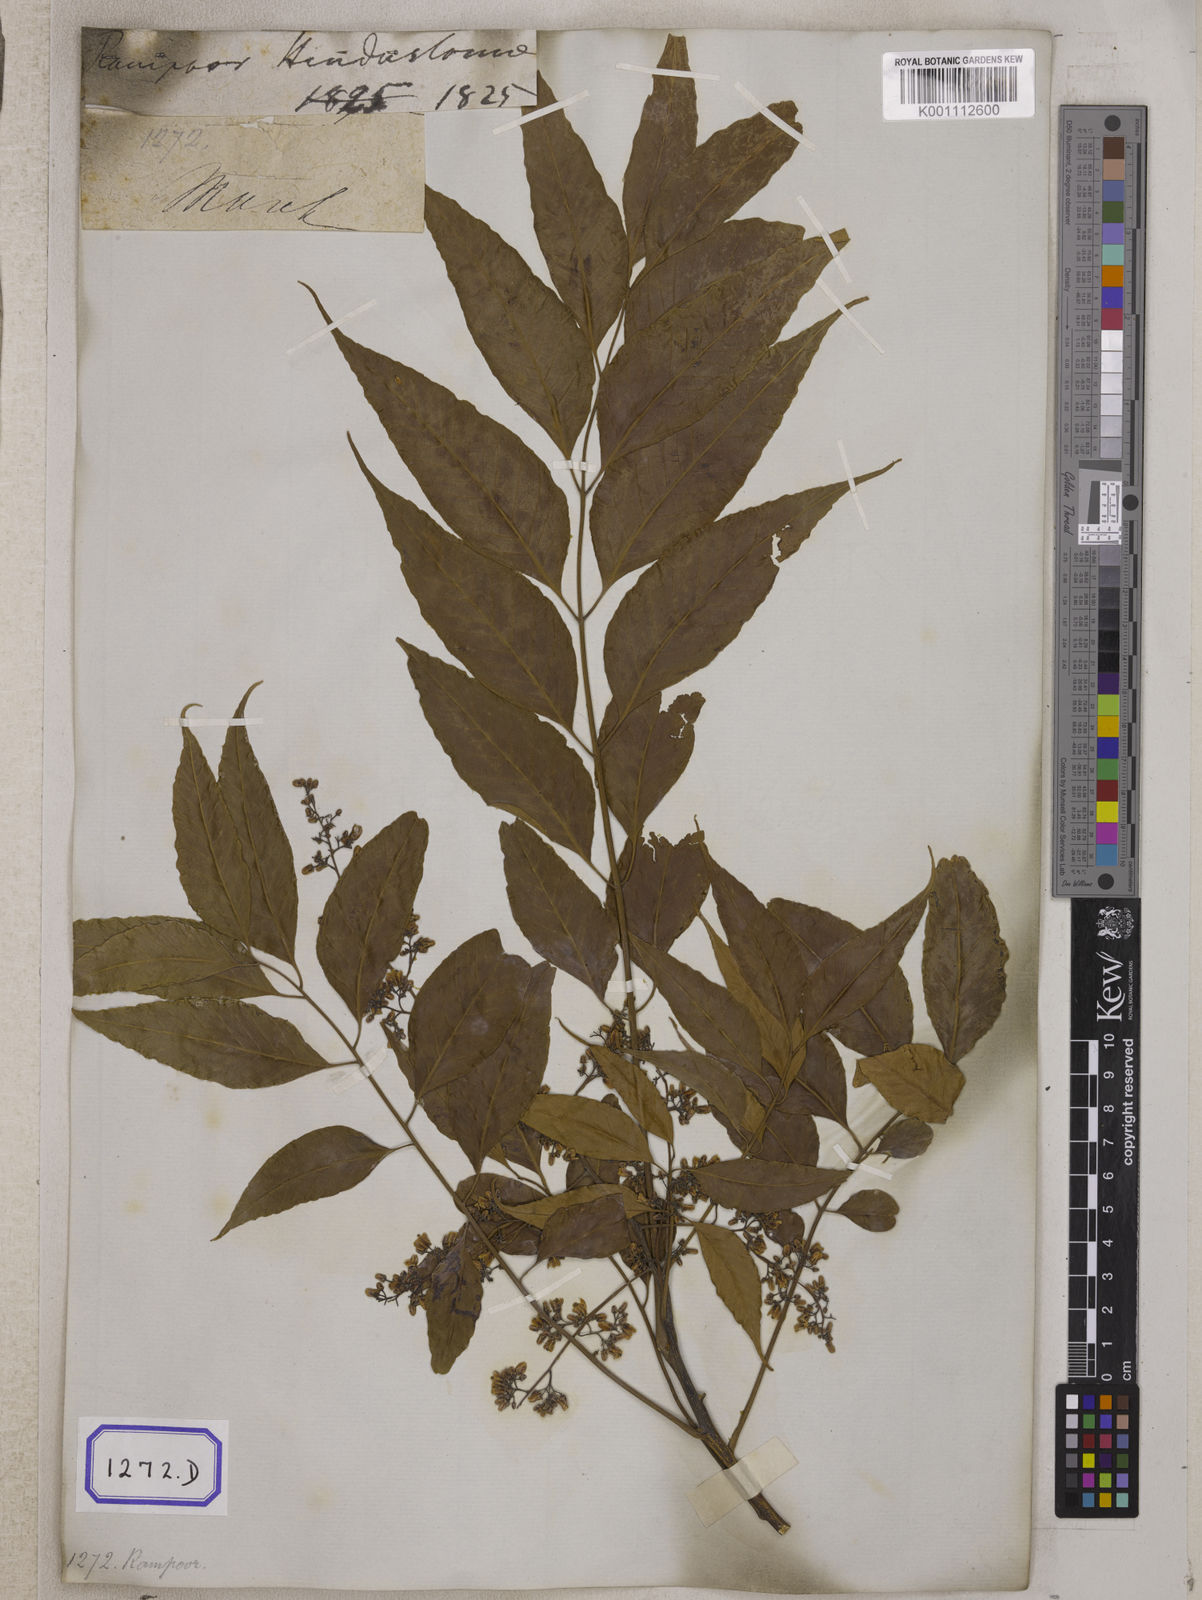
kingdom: Plantae
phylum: Tracheophyta
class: Magnoliopsida
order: Sapindales
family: Meliaceae
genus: Cedrela
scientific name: Cedrela
